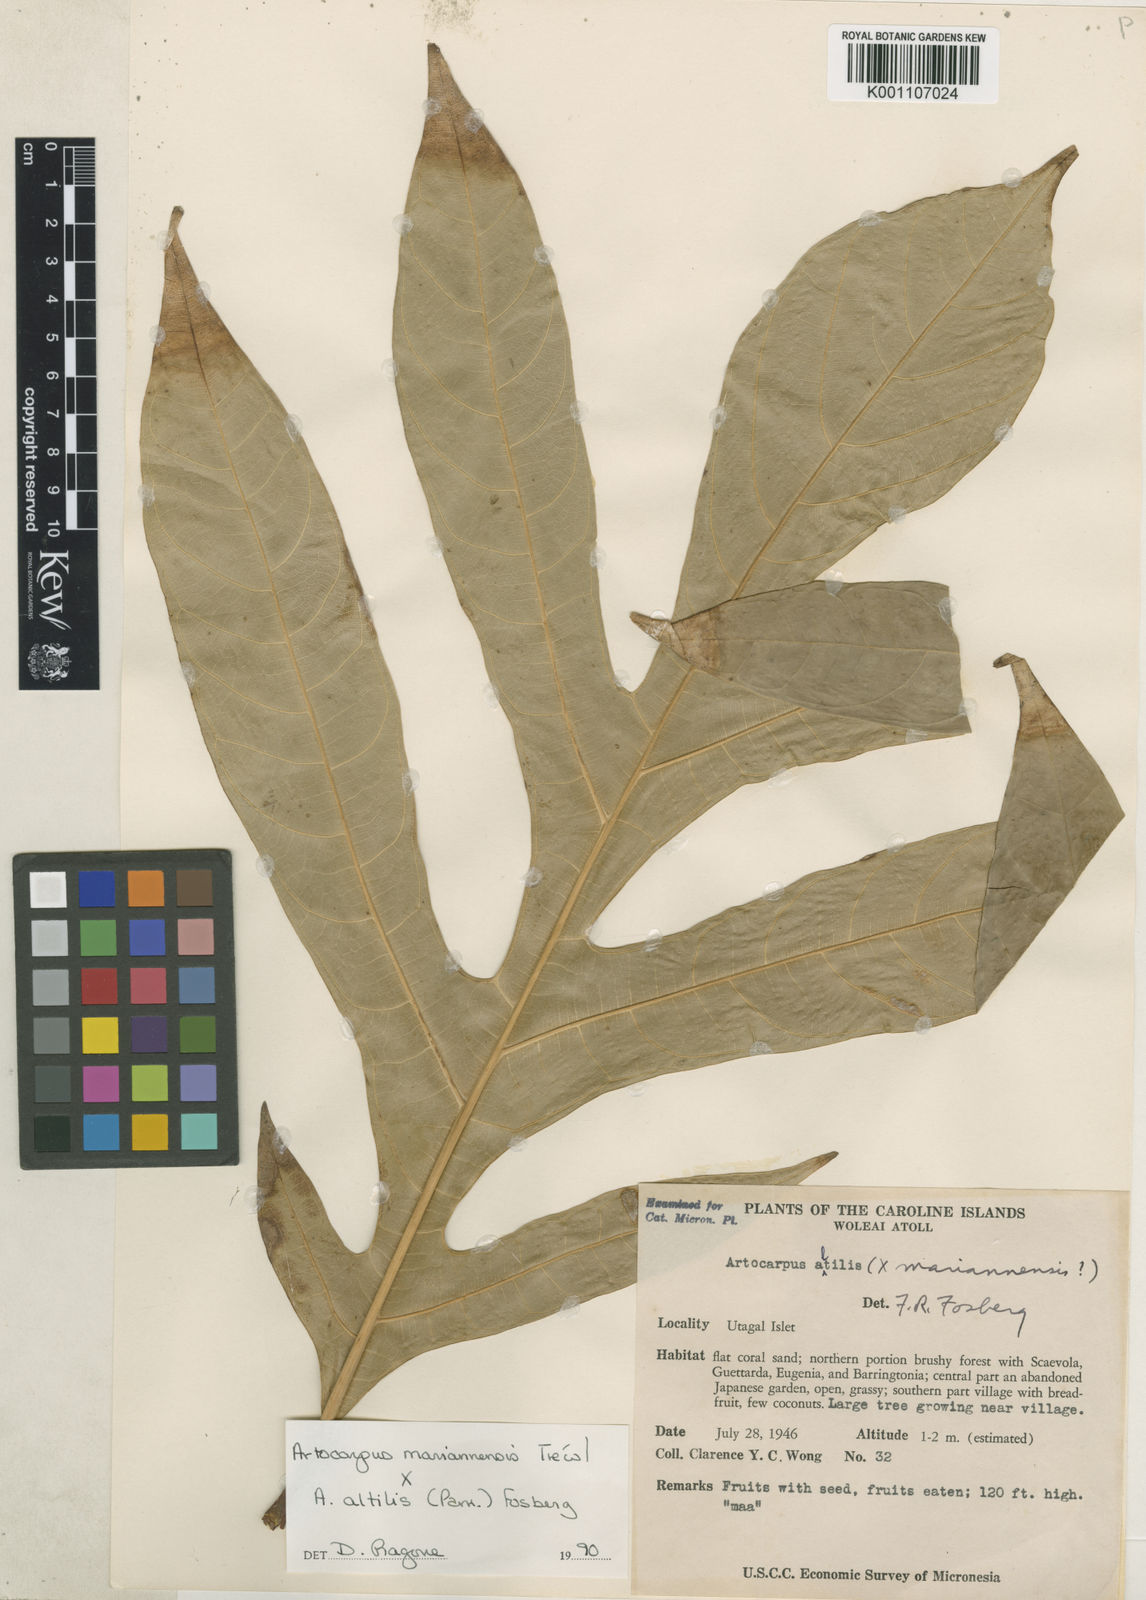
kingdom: Plantae
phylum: Tracheophyta
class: Magnoliopsida
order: Rosales
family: Moraceae
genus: Artocarpus
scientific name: Artocarpus altilis
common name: Breadfruit
